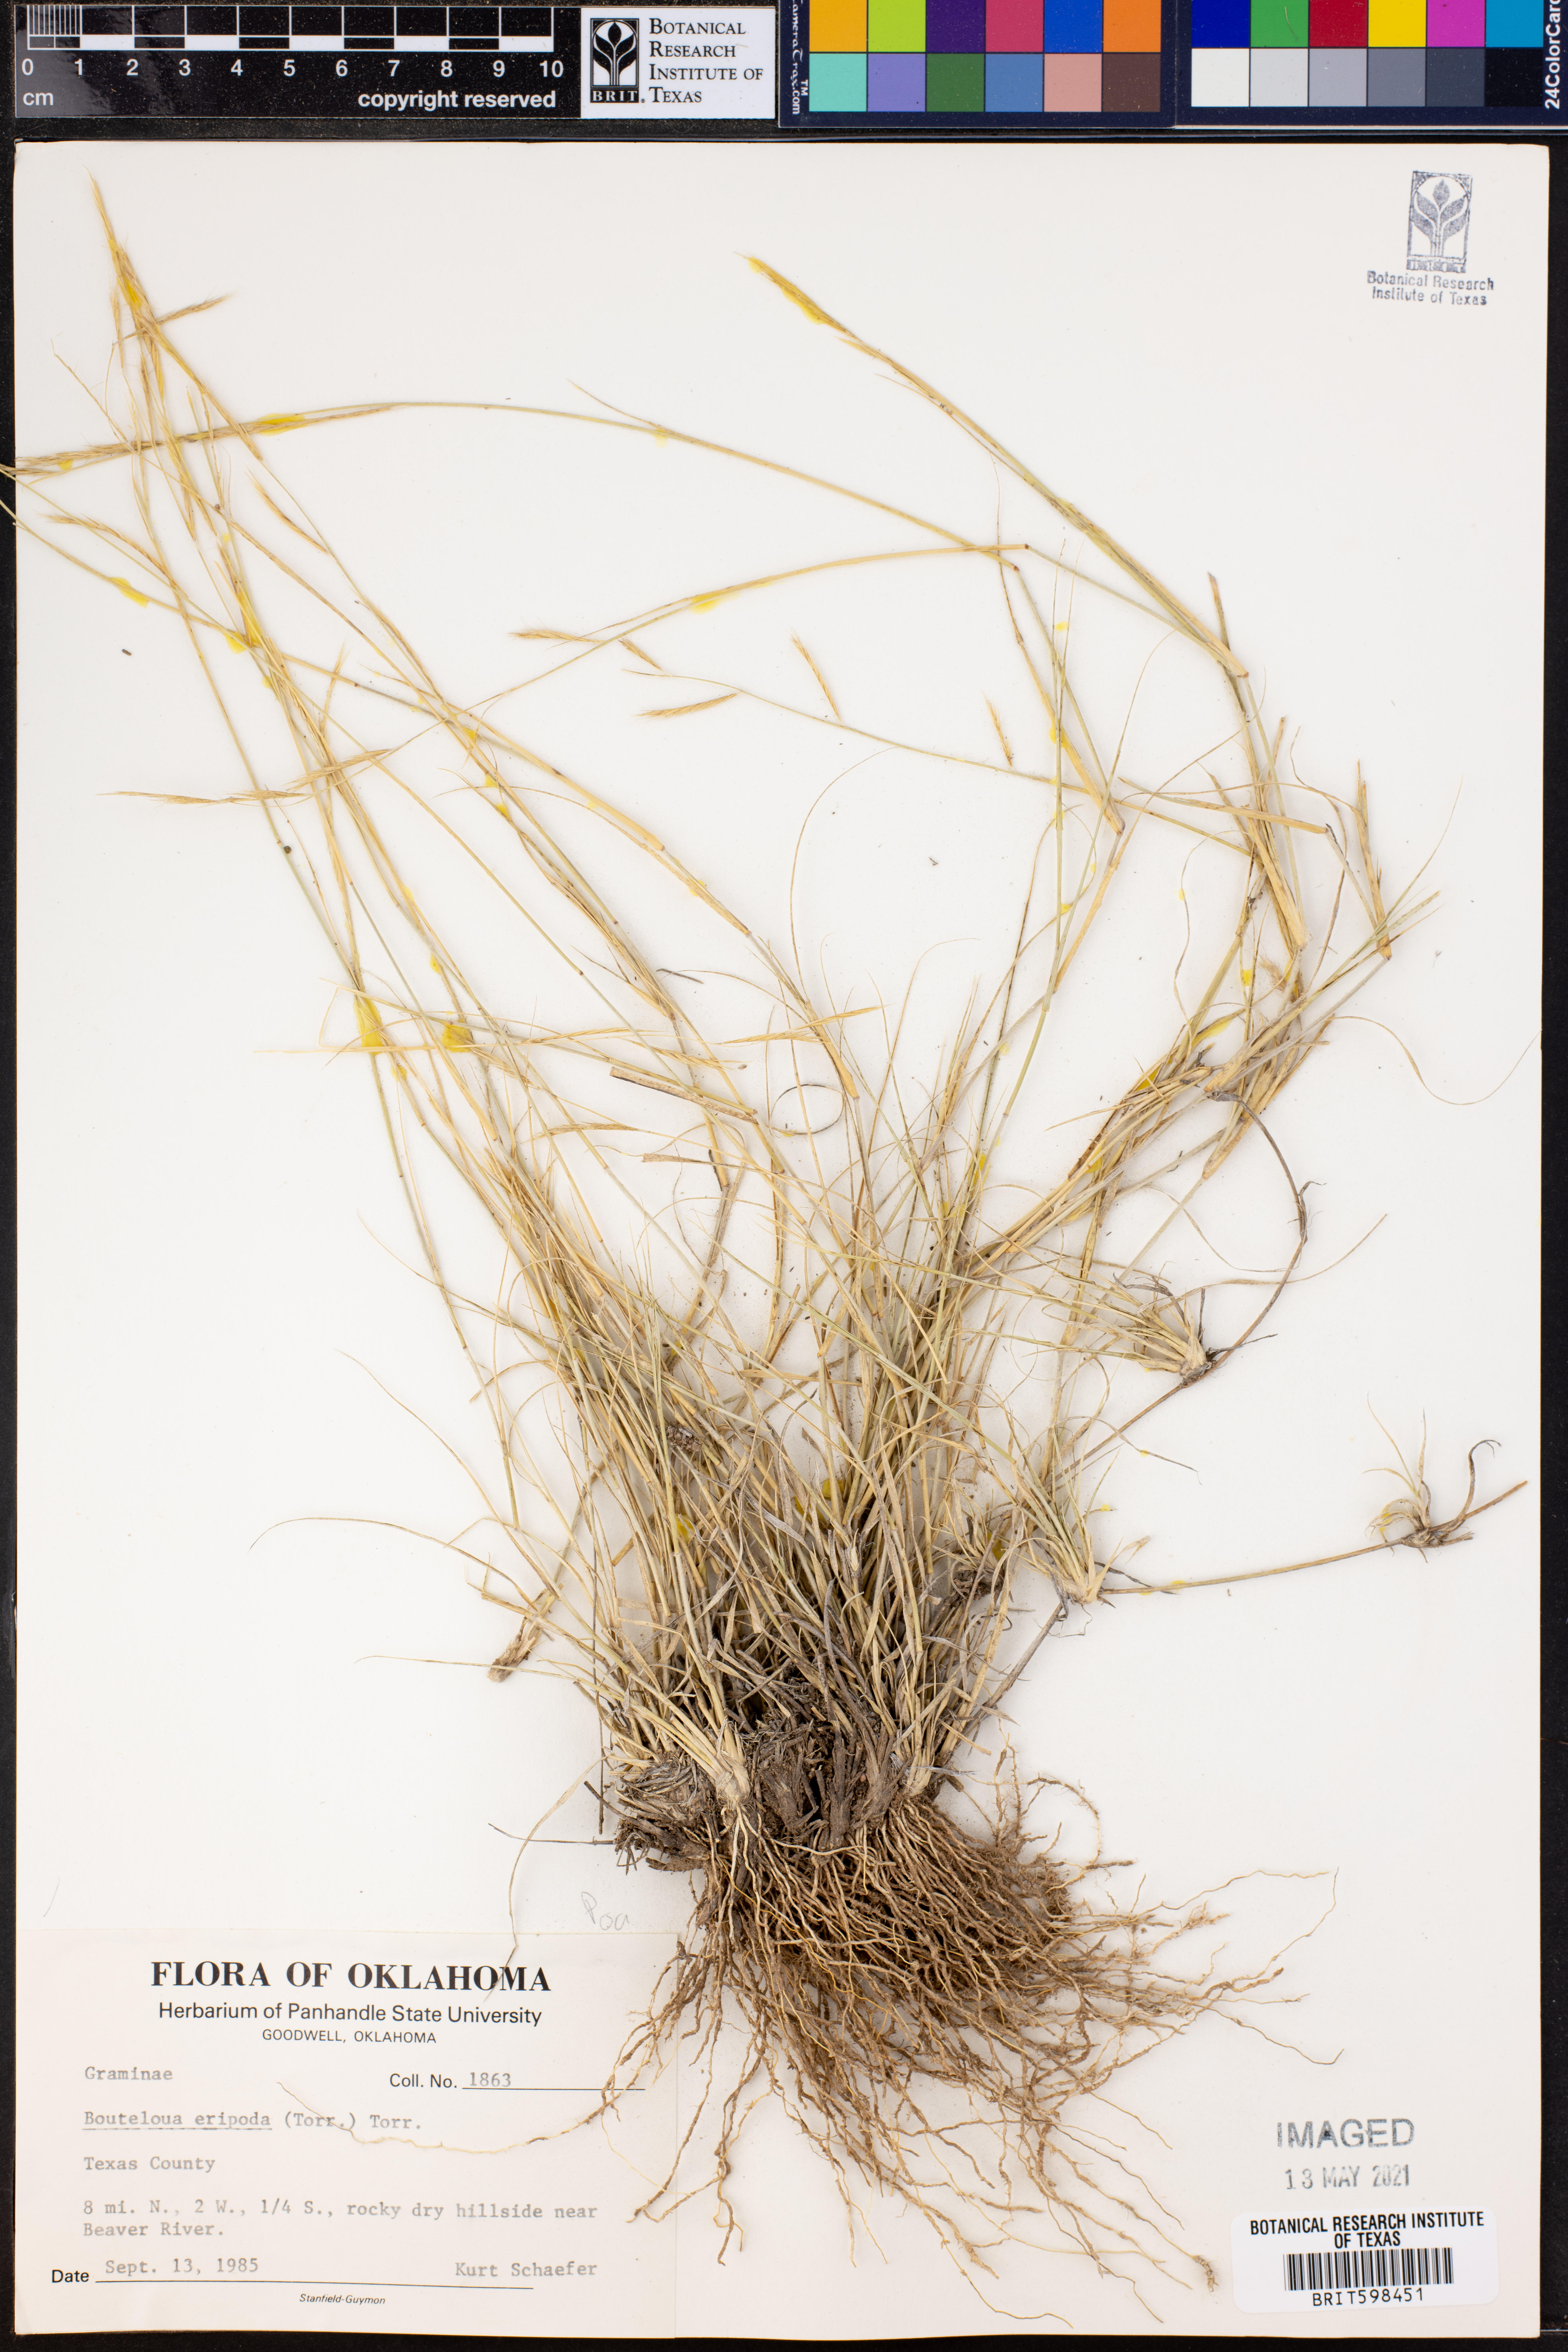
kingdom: Plantae
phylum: Tracheophyta
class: Liliopsida
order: Poales
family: Poaceae
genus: Bouteloua
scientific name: Bouteloua eriopoda
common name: Woolly foot grama
